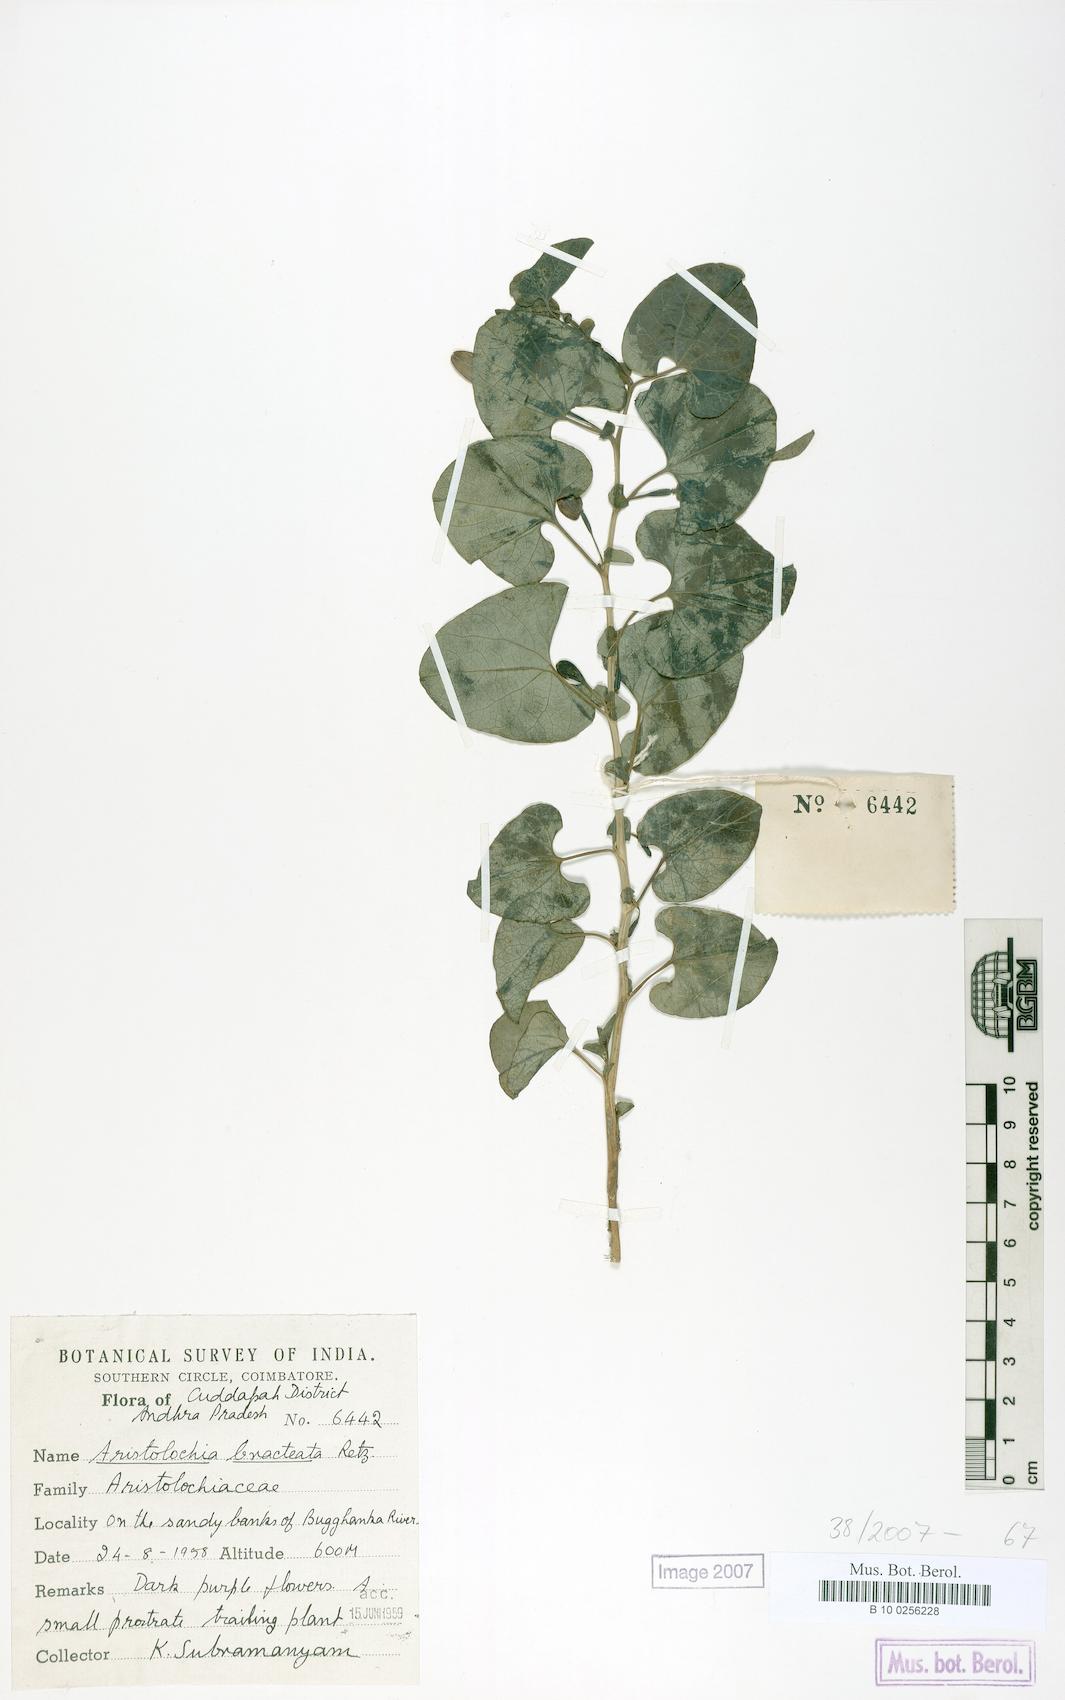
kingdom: Plantae
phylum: Tracheophyta
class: Magnoliopsida
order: Piperales
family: Aristolochiaceae
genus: Aristolochia
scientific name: Aristolochia bracteolata
